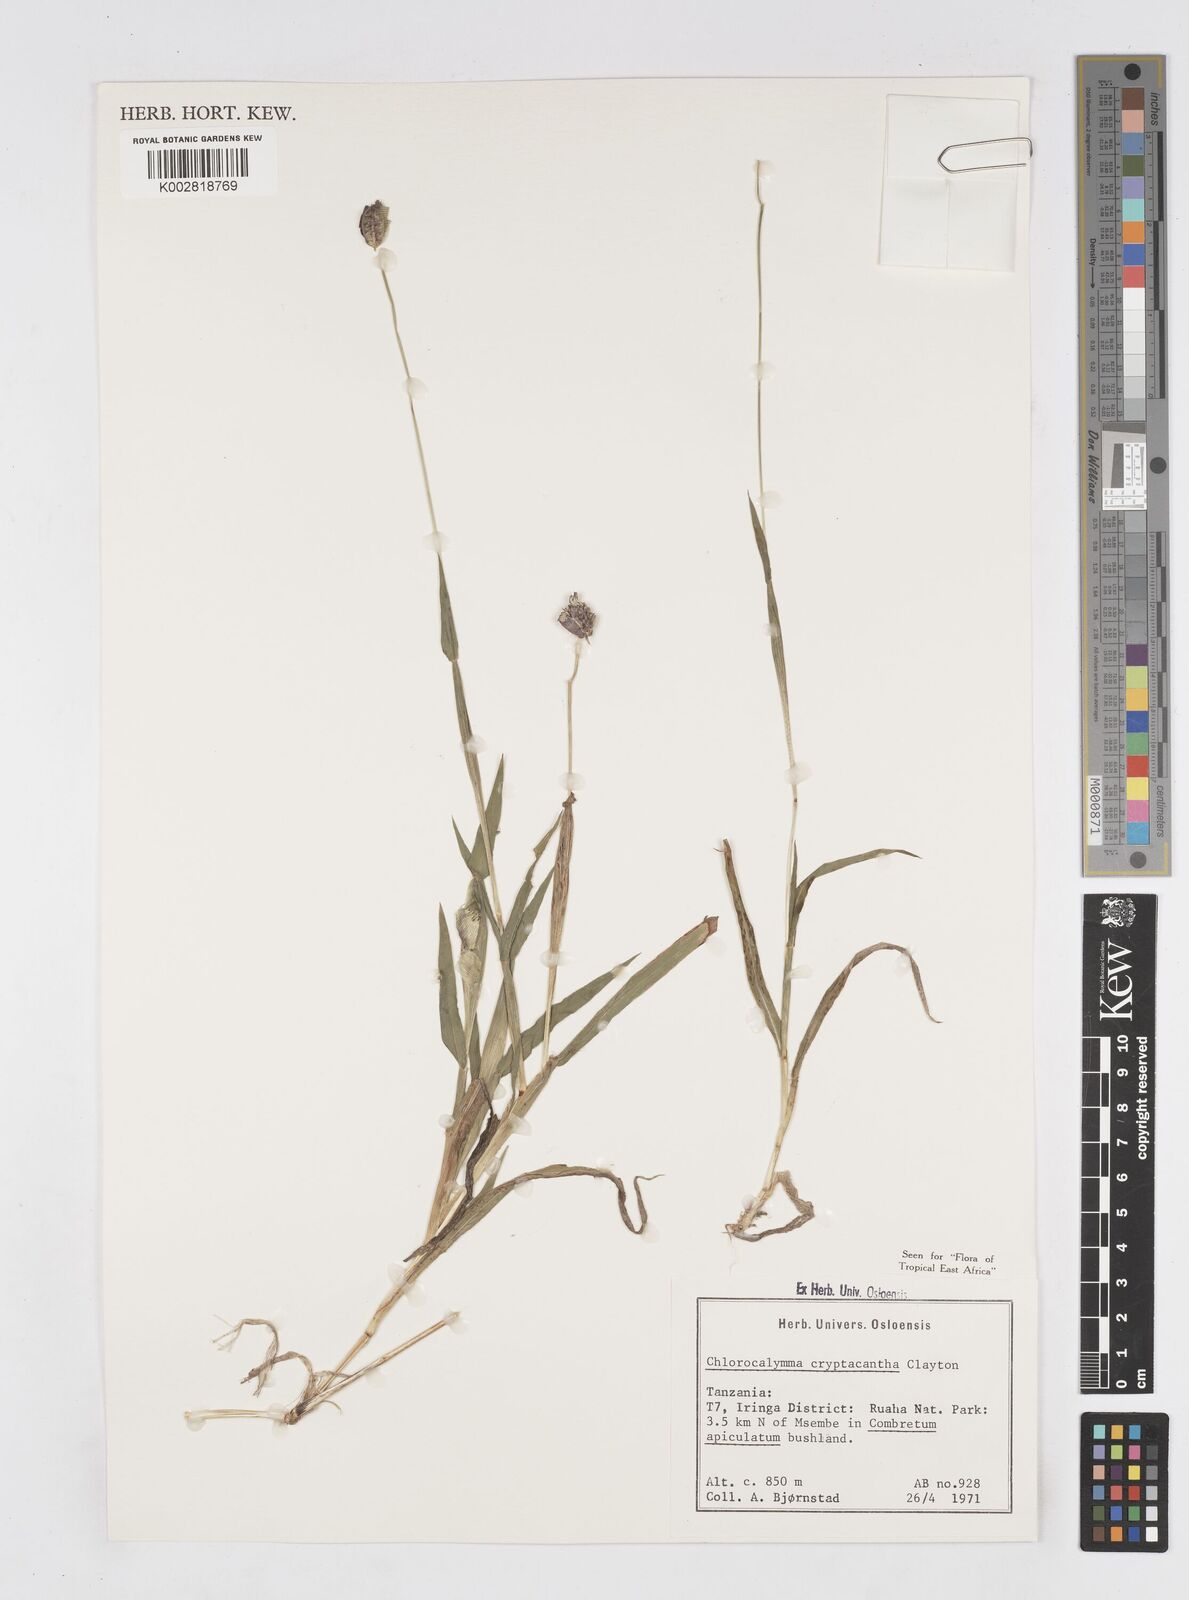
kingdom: Plantae
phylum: Tracheophyta
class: Liliopsida
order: Poales
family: Poaceae
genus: Chlorocalymma
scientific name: Chlorocalymma cryptacanthum
